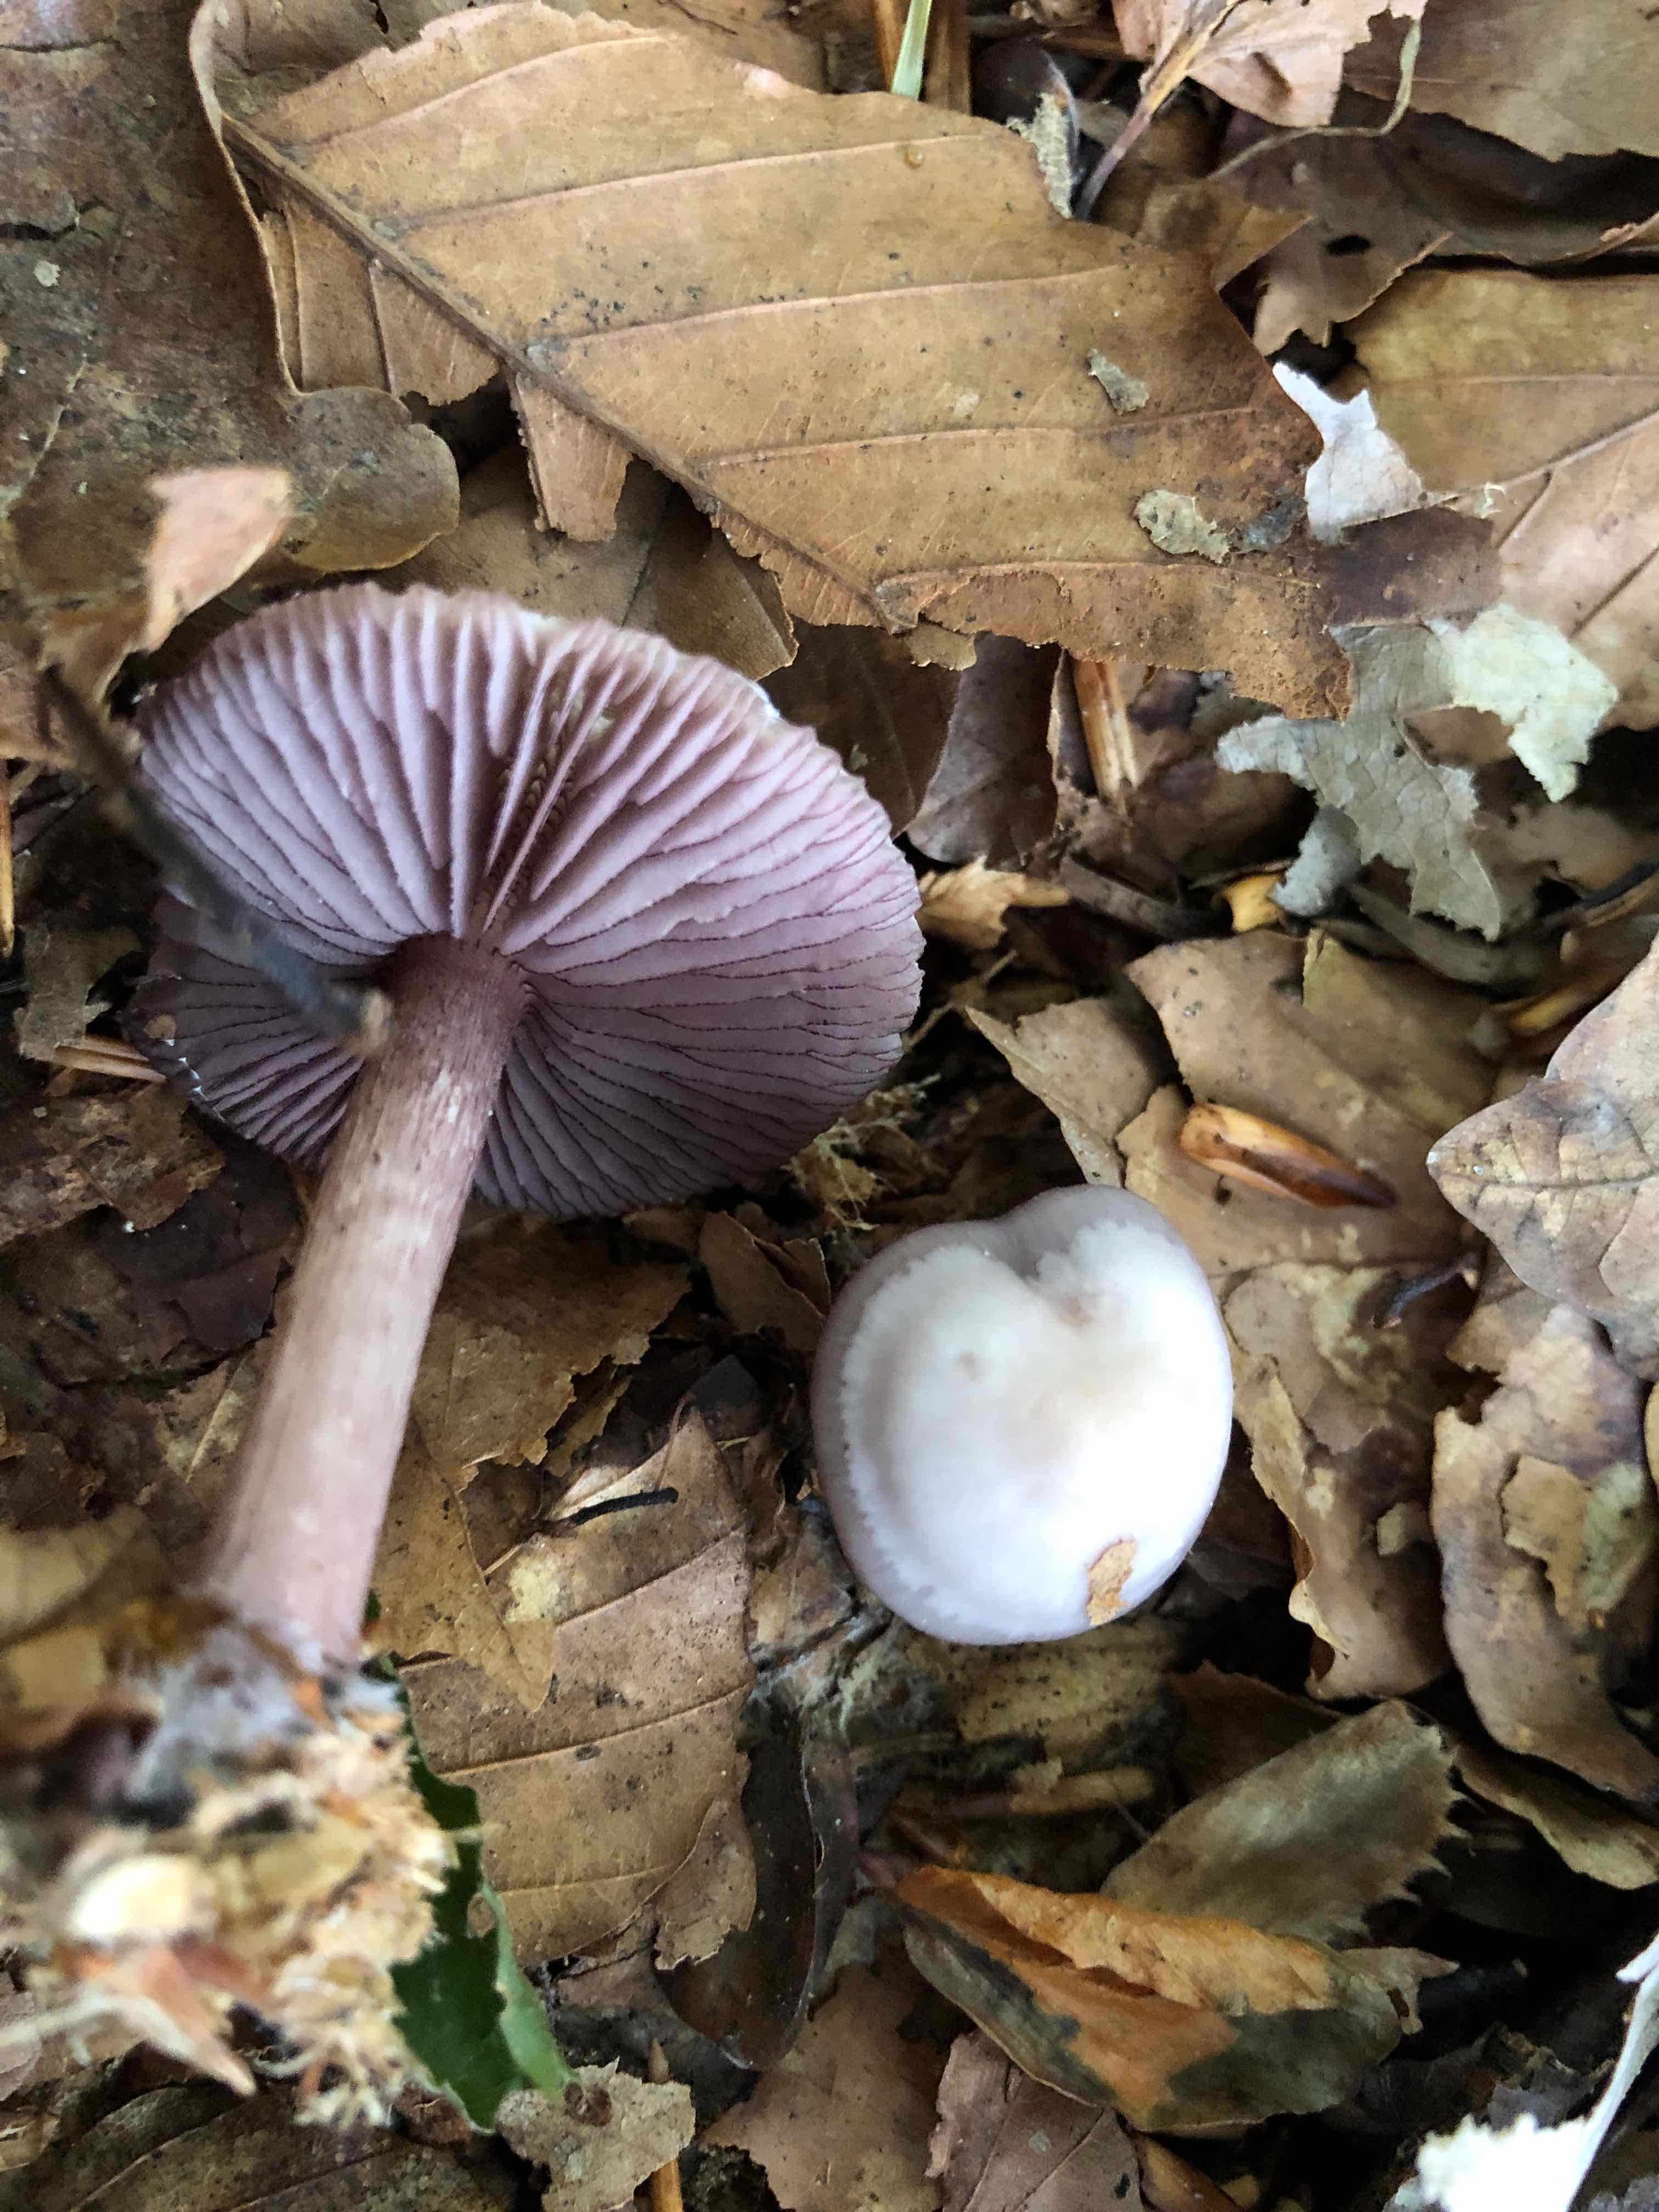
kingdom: Fungi
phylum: Basidiomycota
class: Agaricomycetes
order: Agaricales
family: Mycenaceae
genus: Mycena
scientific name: Mycena pelianthina
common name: mørkbladet huesvamp
